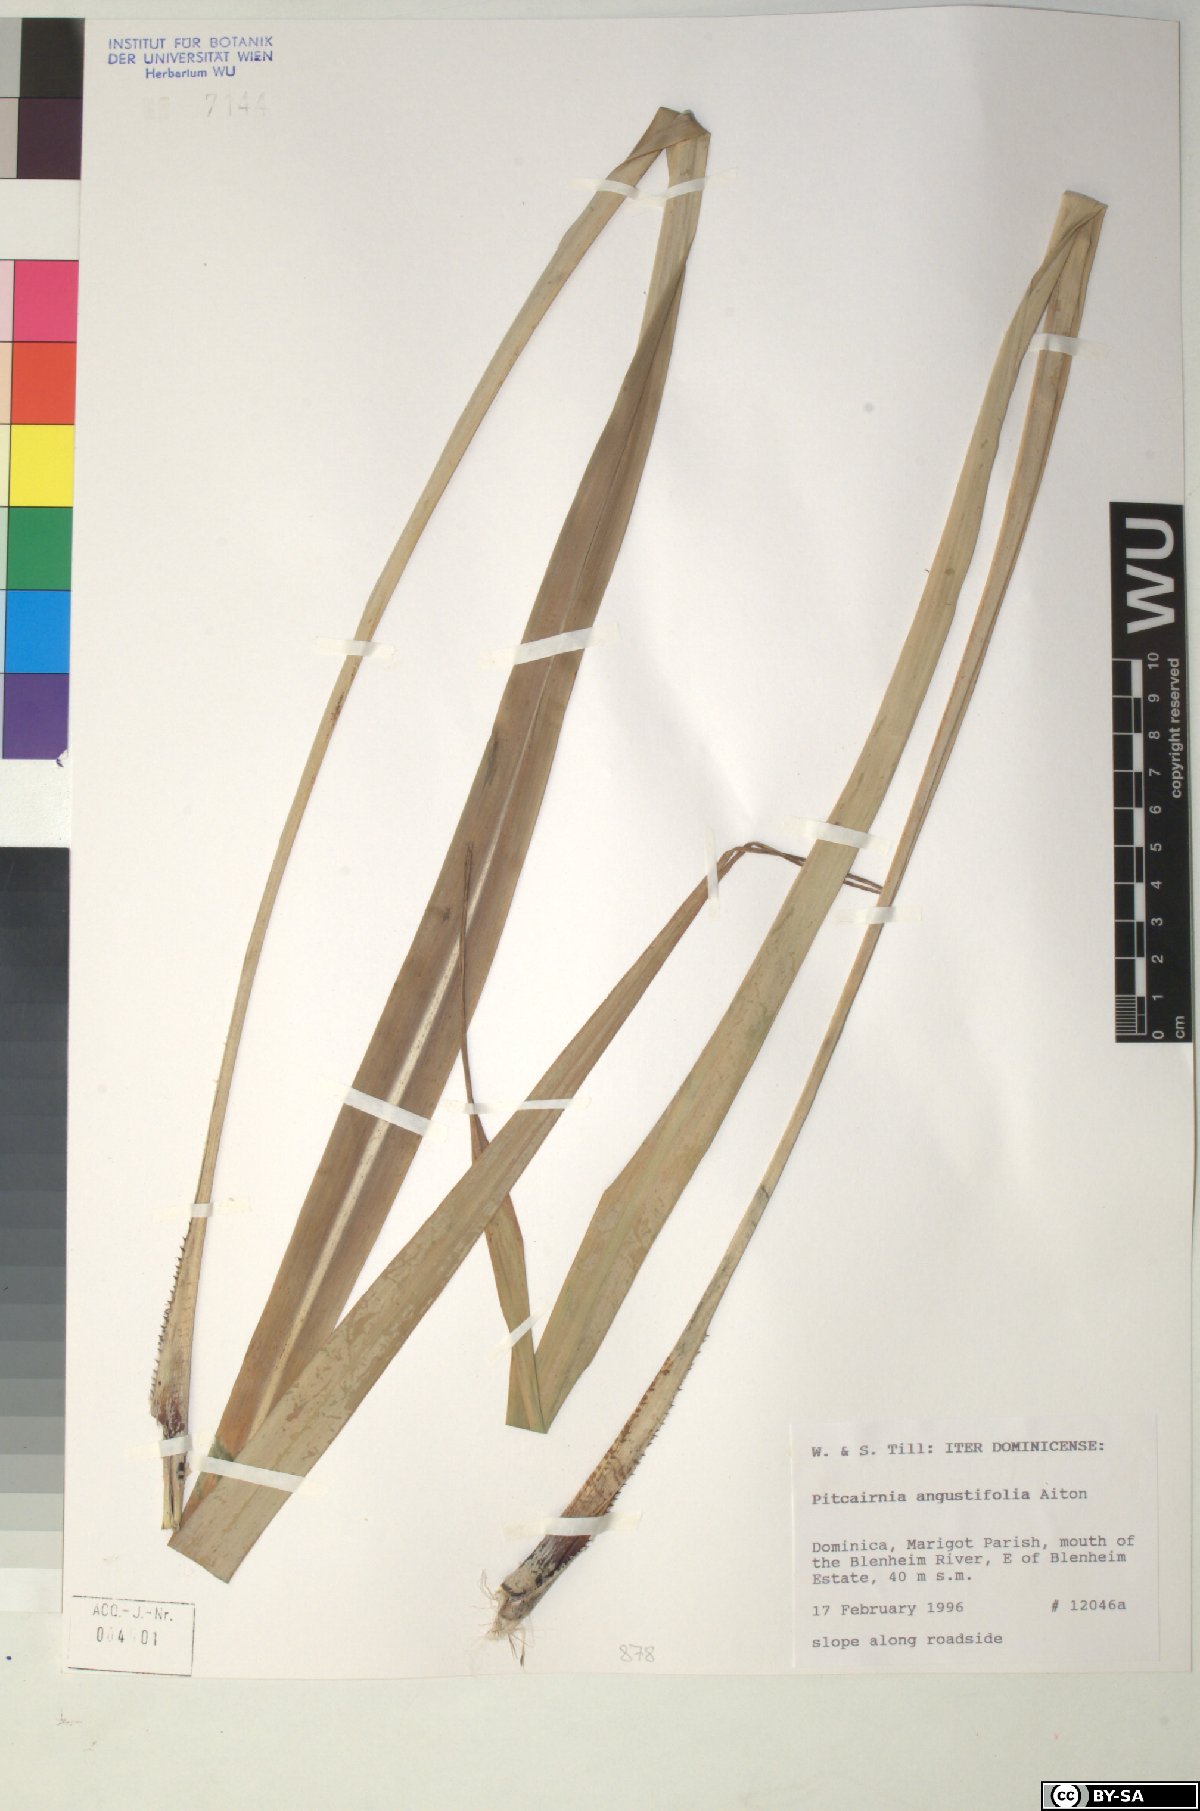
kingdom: Plantae
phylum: Tracheophyta
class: Liliopsida
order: Poales
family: Bromeliaceae
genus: Pitcairnia
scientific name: Pitcairnia angustifolia
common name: Clapper
